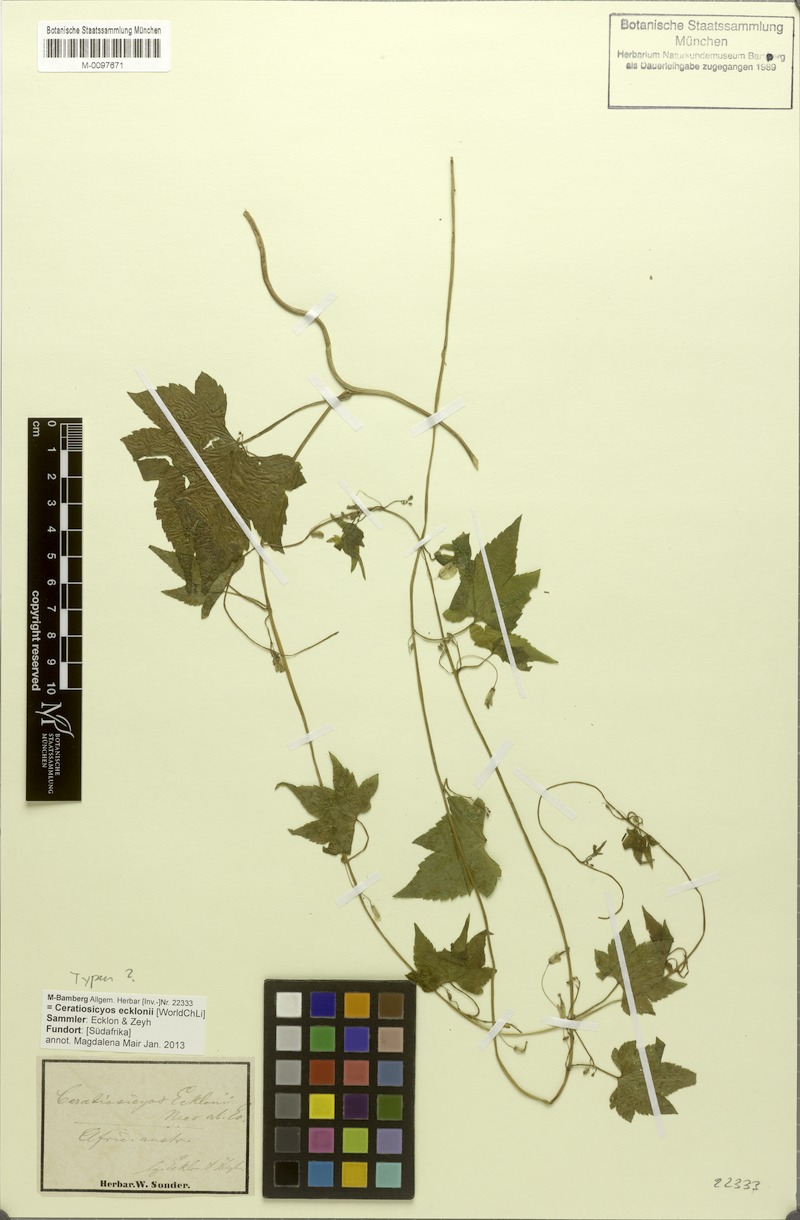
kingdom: Plantae
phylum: Tracheophyta
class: Magnoliopsida
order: Malpighiales
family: Achariaceae
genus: Ceratiosicyos
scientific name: Ceratiosicyos laevis
